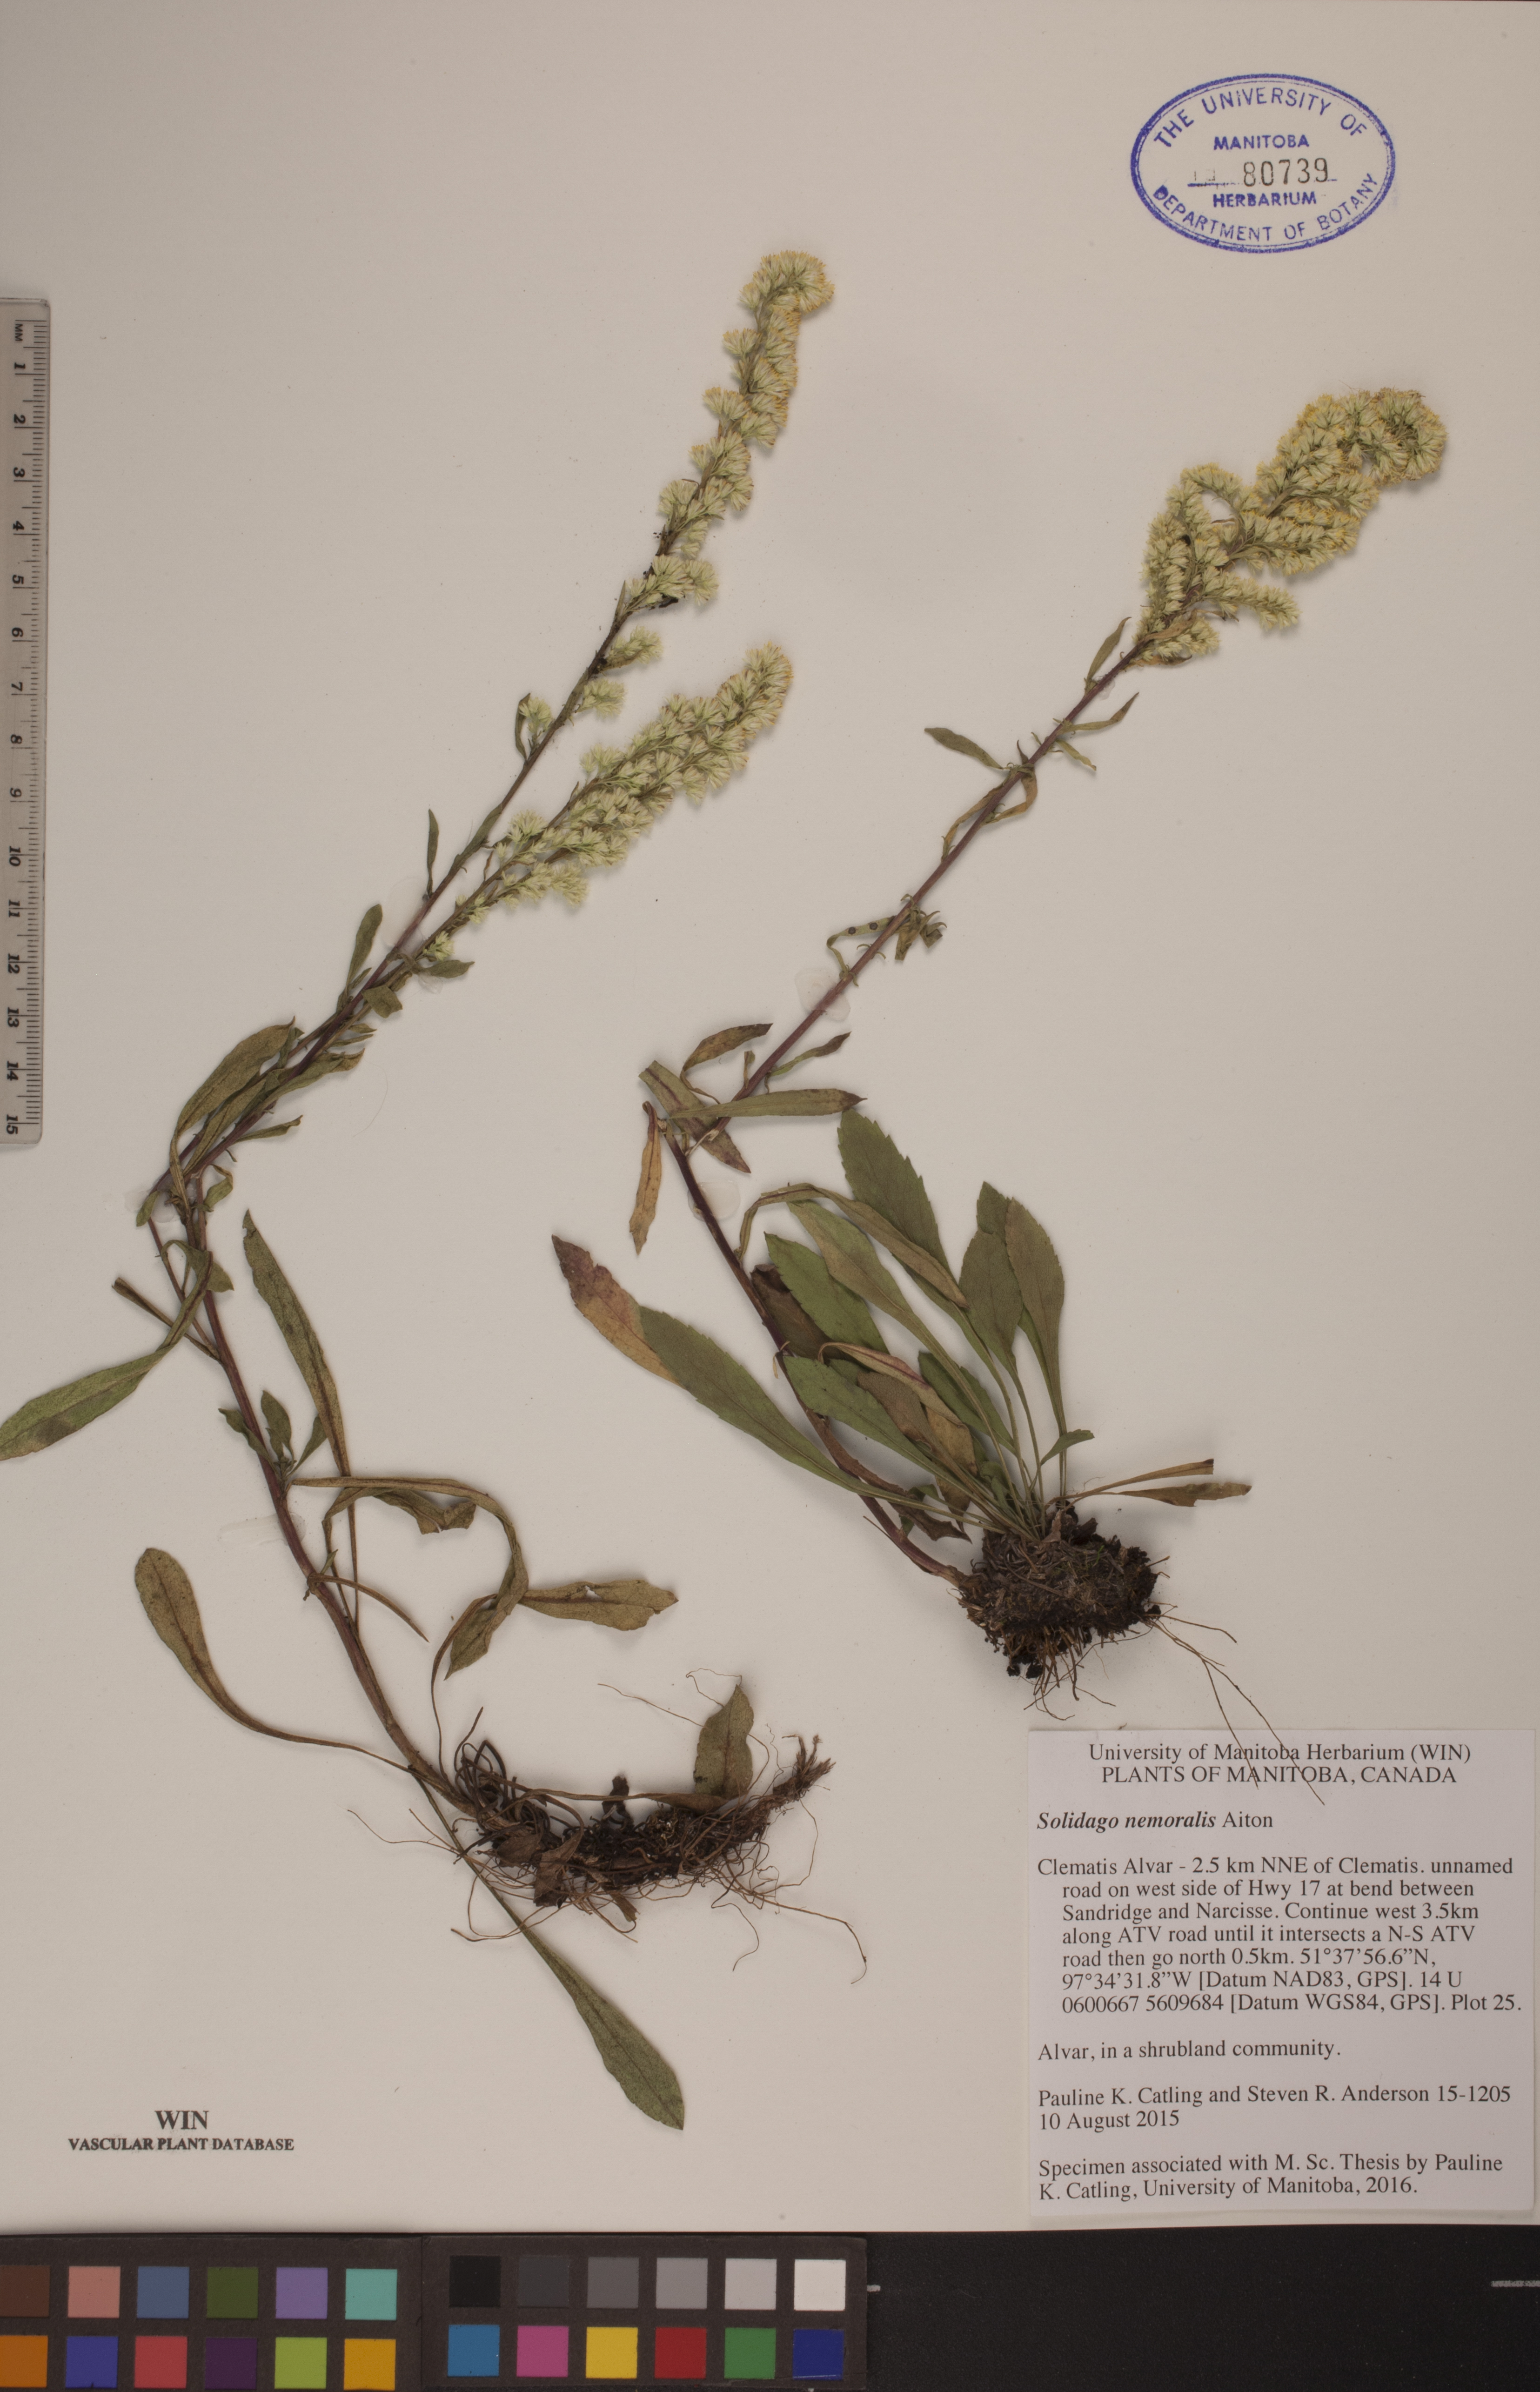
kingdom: Plantae
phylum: Tracheophyta
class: Magnoliopsida
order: Asterales
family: Asteraceae
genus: Solidago
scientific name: Solidago nemoralis
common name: Grey goldenrod
